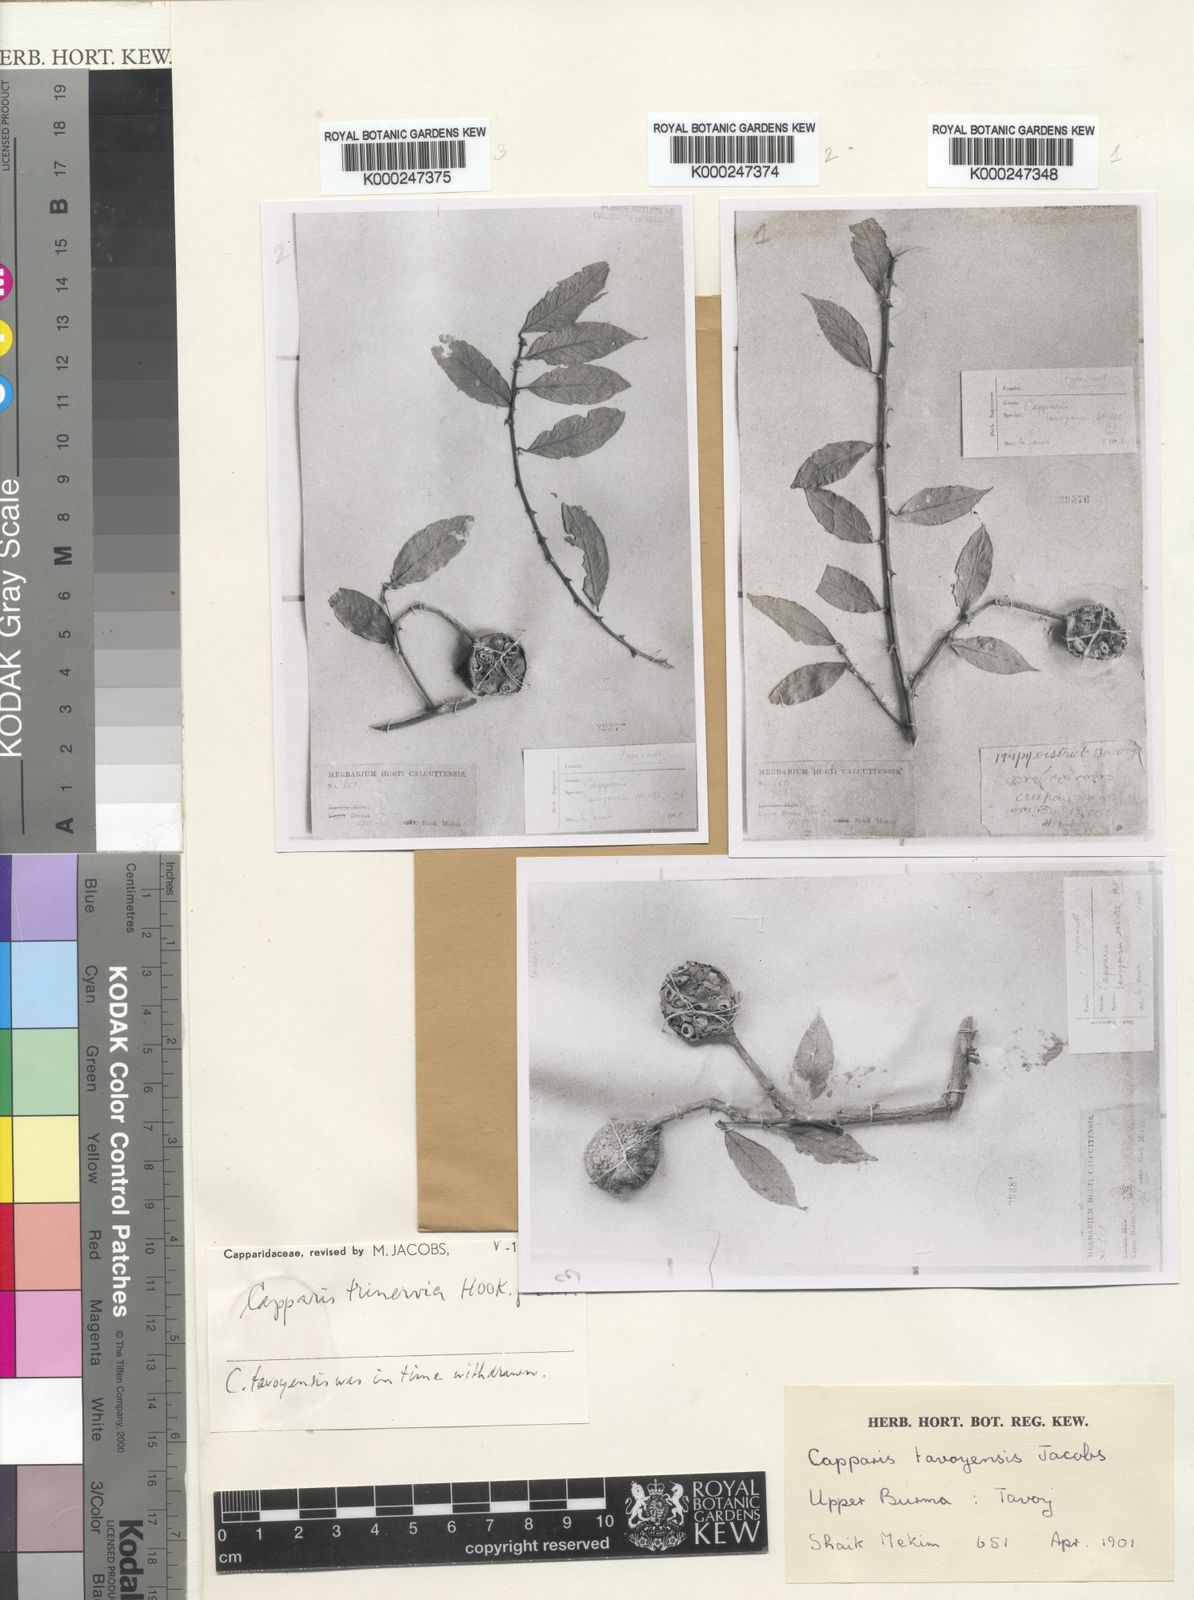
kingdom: Plantae
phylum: Tracheophyta
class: Magnoliopsida
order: Brassicales
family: Capparaceae
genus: Capparis
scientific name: Capparis trinervia
